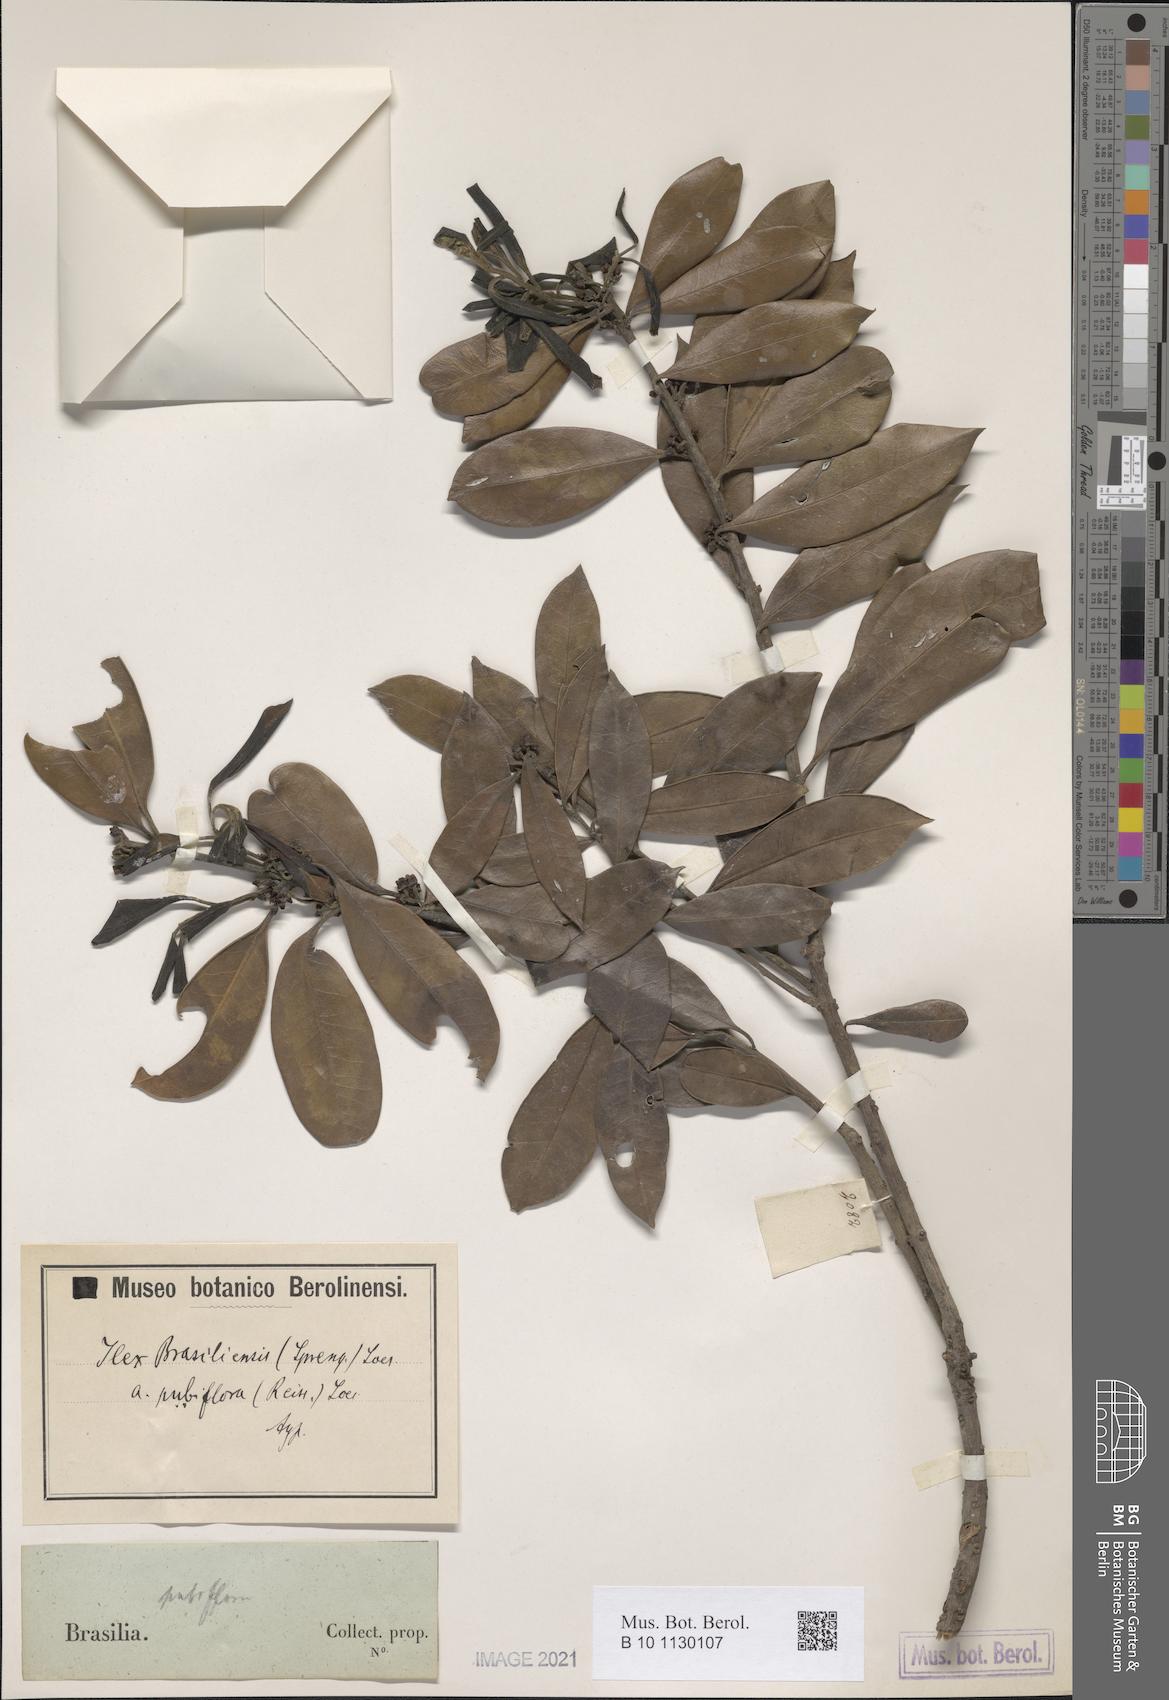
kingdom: Plantae
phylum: Tracheophyta
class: Magnoliopsida
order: Aquifoliales
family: Aquifoliaceae
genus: Ilex
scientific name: Ilex brasiliensis
